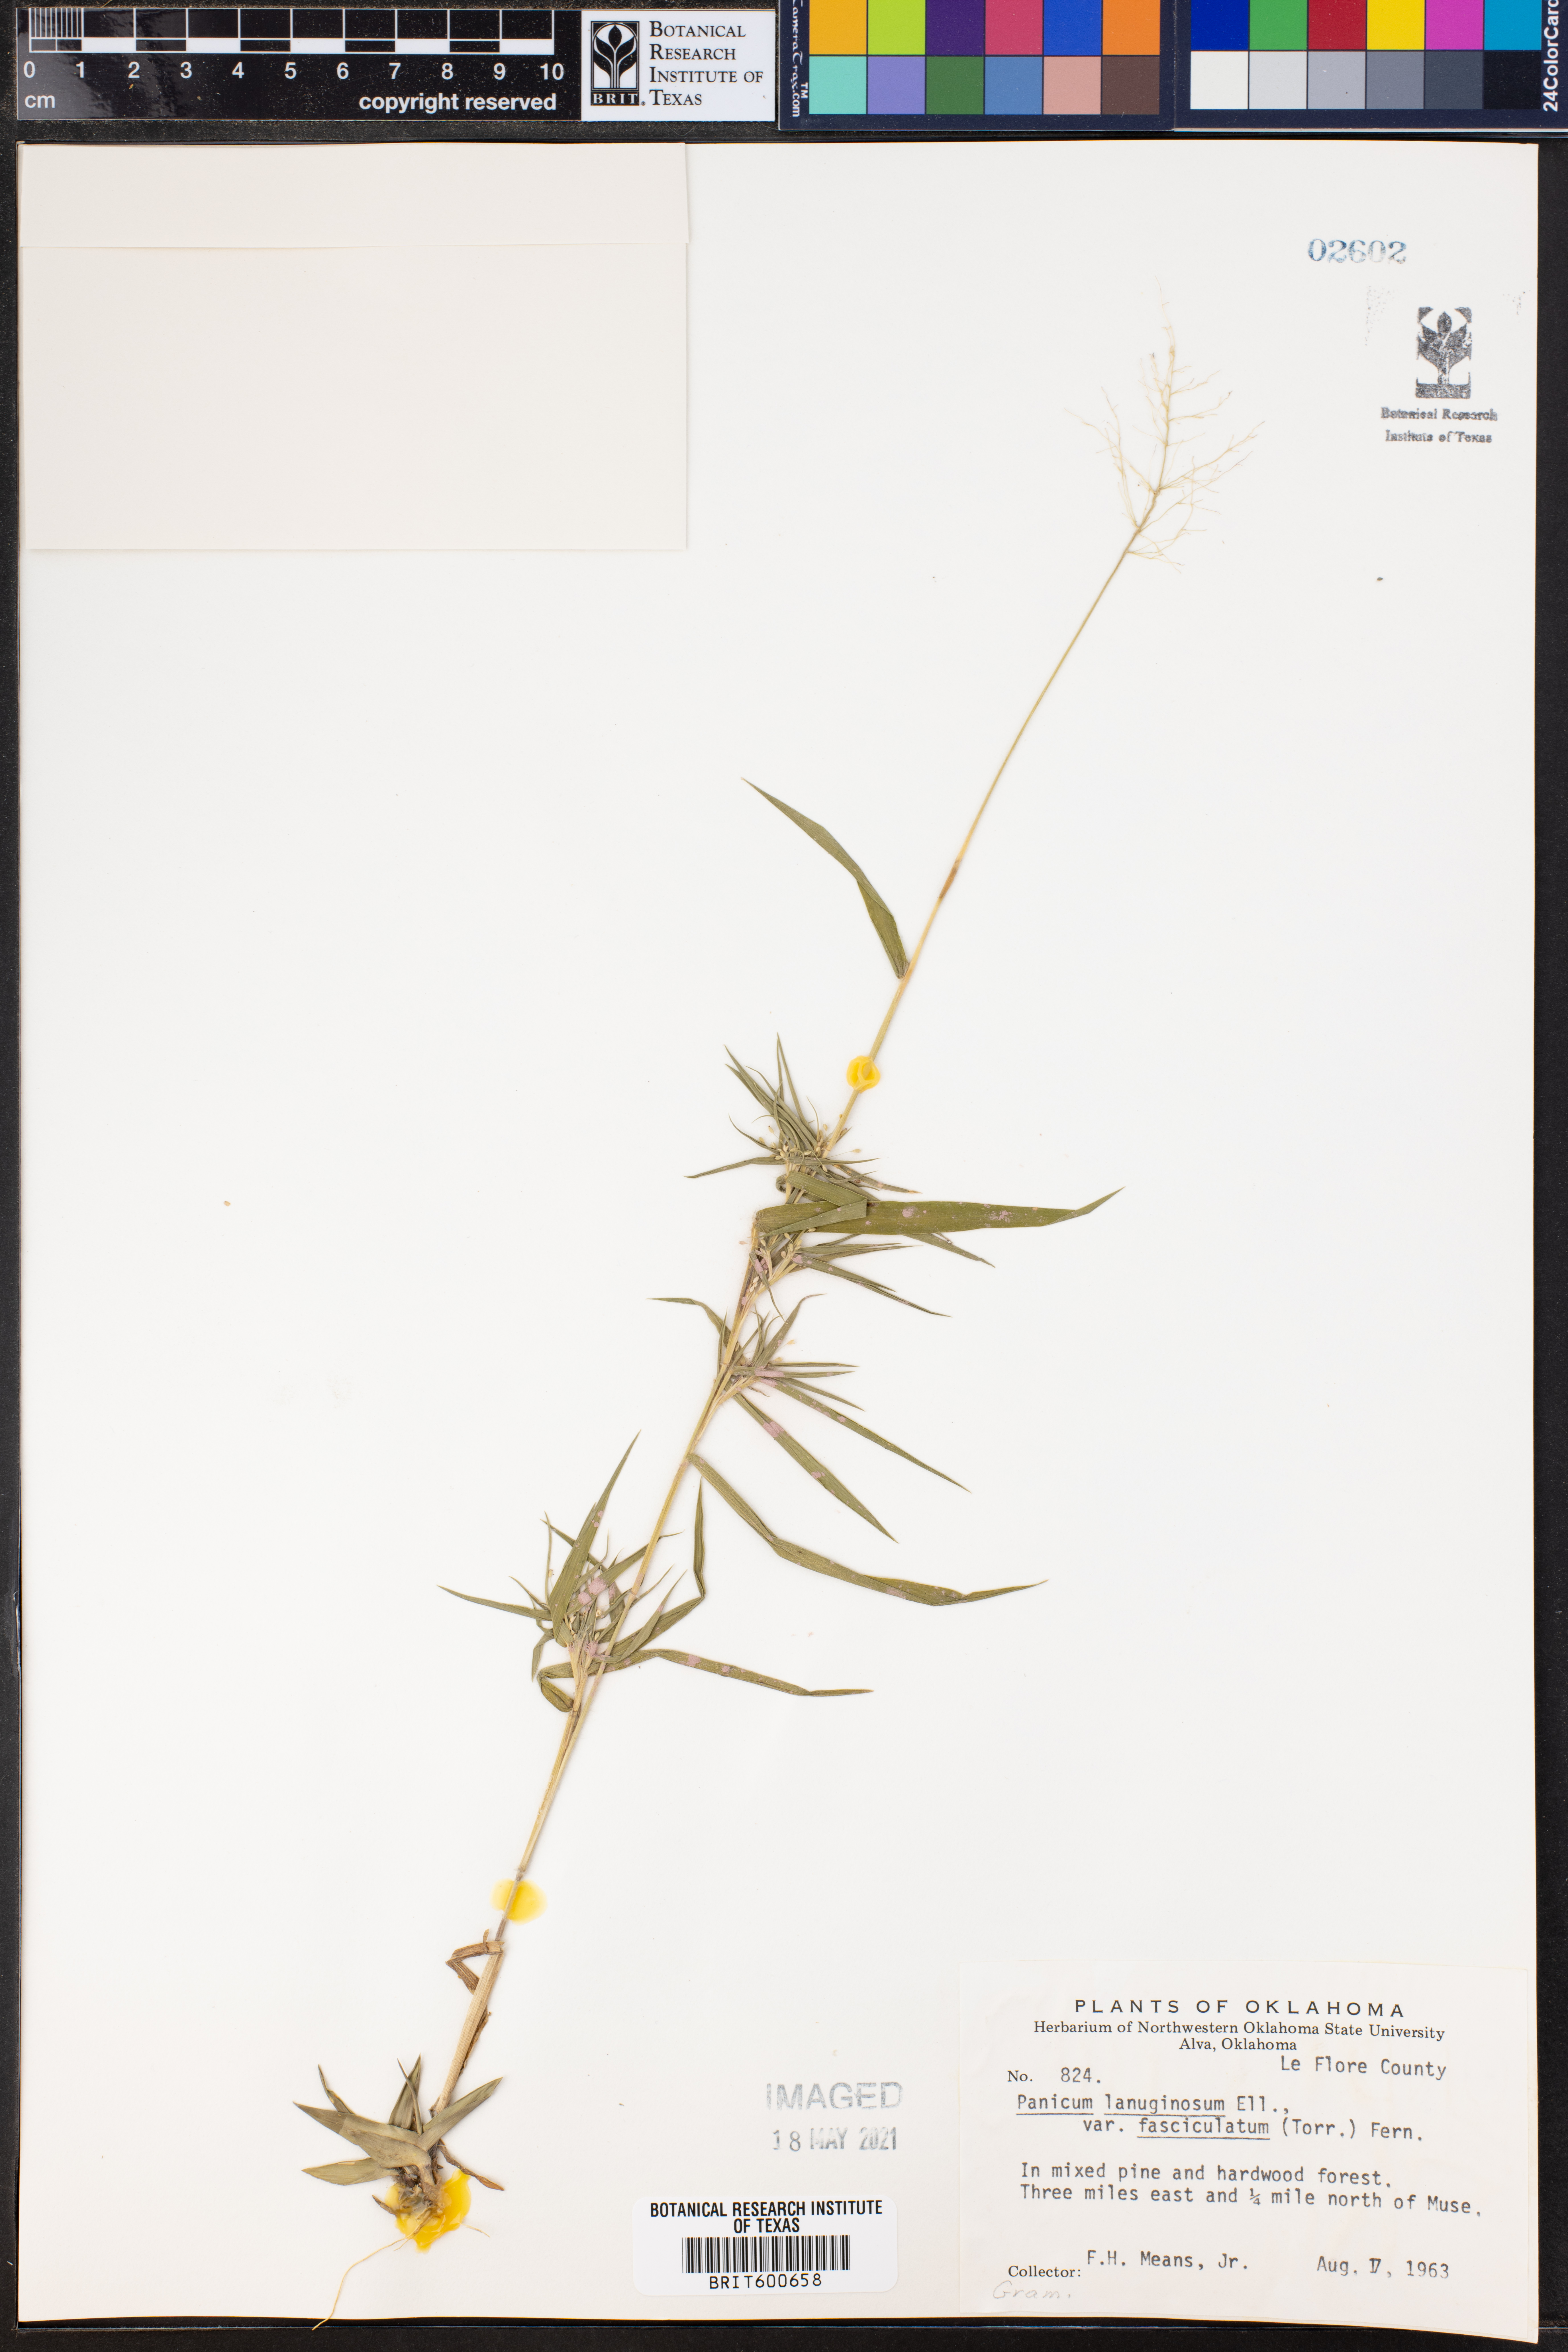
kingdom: Plantae
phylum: Tracheophyta
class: Liliopsida
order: Poales
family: Poaceae
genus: Dichanthelium
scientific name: Dichanthelium lanuginosum
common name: Woolly panicgrass
